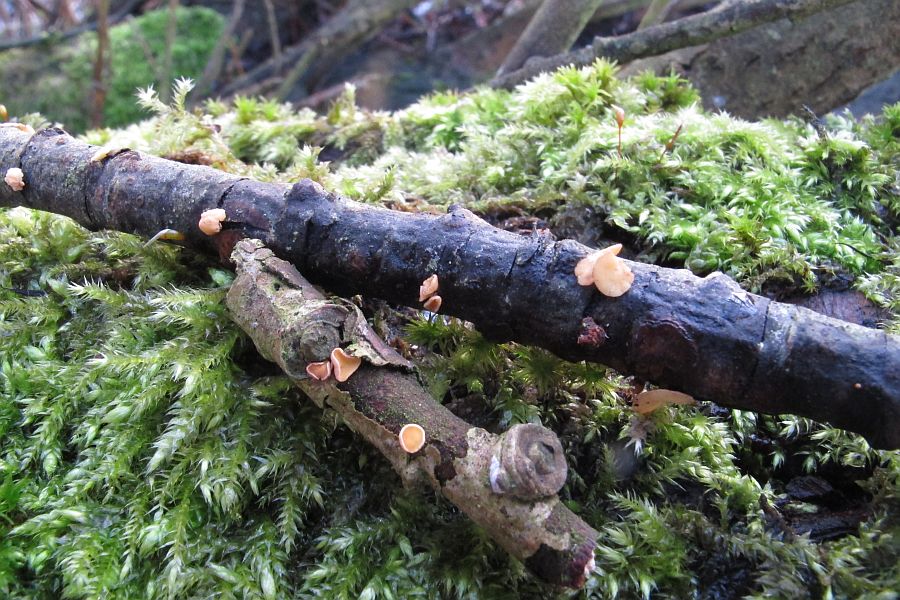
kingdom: Fungi
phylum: Ascomycota
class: Leotiomycetes
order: Helotiales
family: Helotiaceae
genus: Hymenoscyphus
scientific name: Hymenoscyphus calyculus
